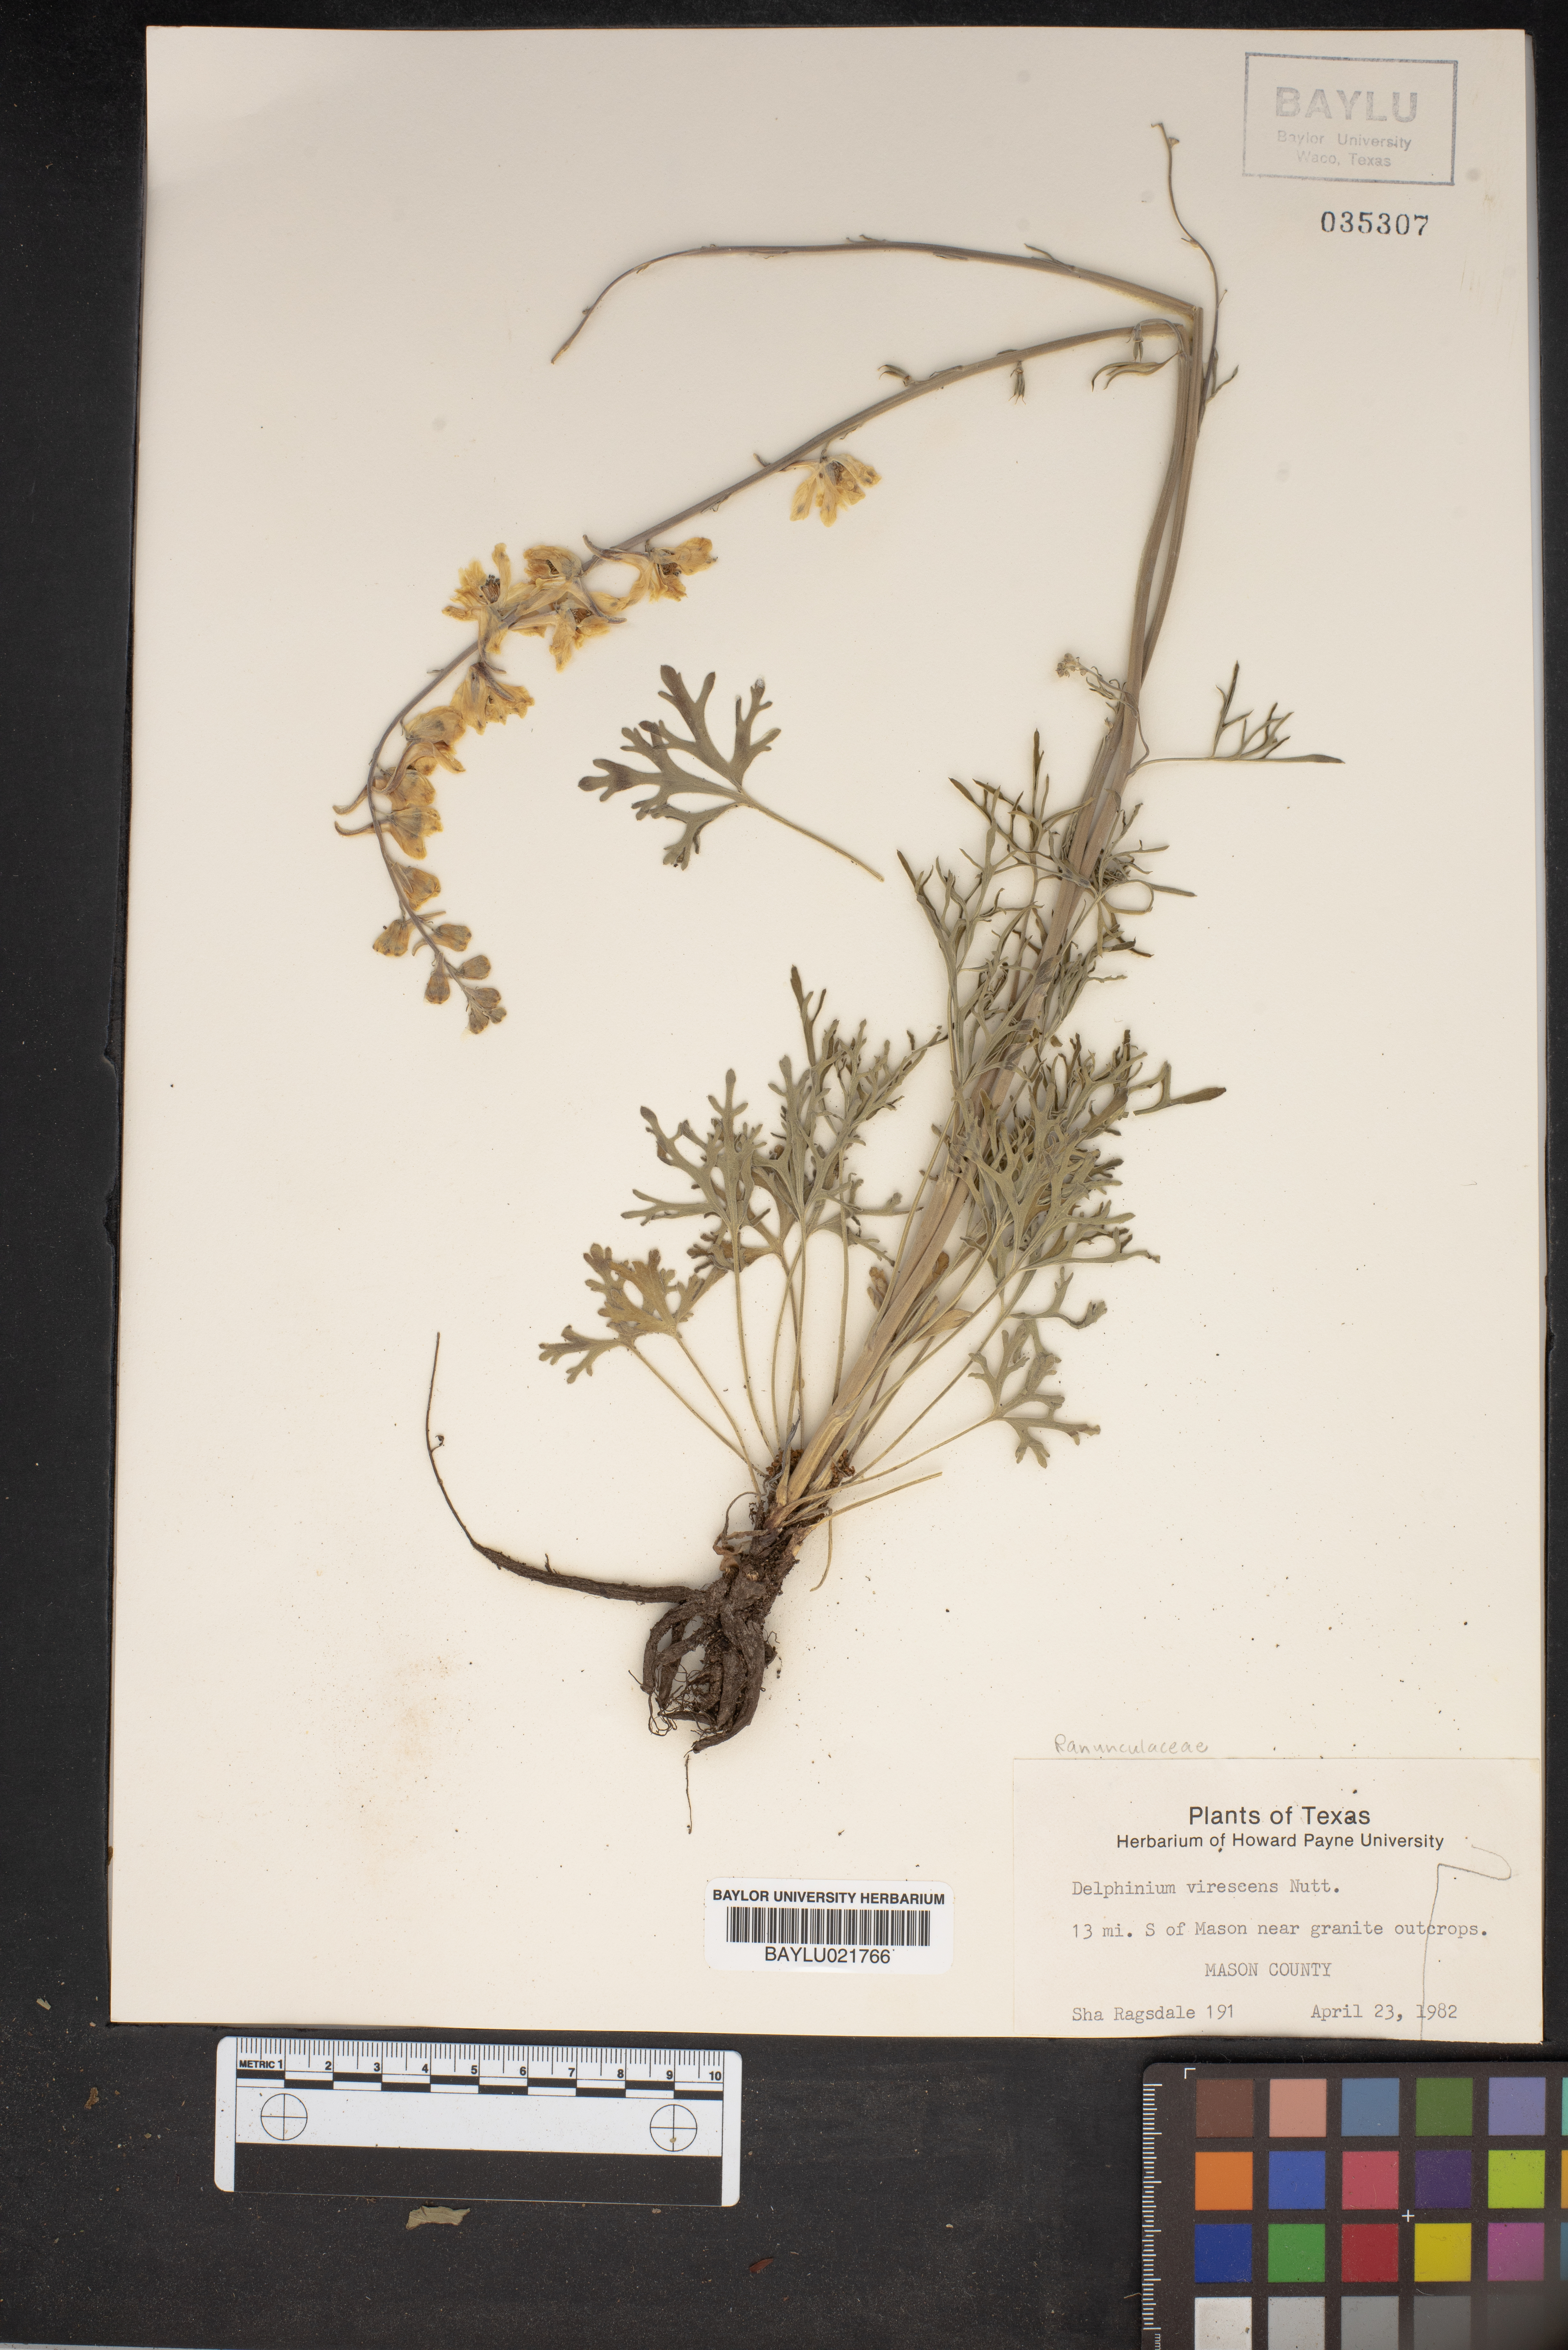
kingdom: Plantae
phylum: Tracheophyta
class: Magnoliopsida
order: Ranunculales
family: Ranunculaceae
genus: Delphinium
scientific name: Delphinium carolinianum
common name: Carolina larkspur
